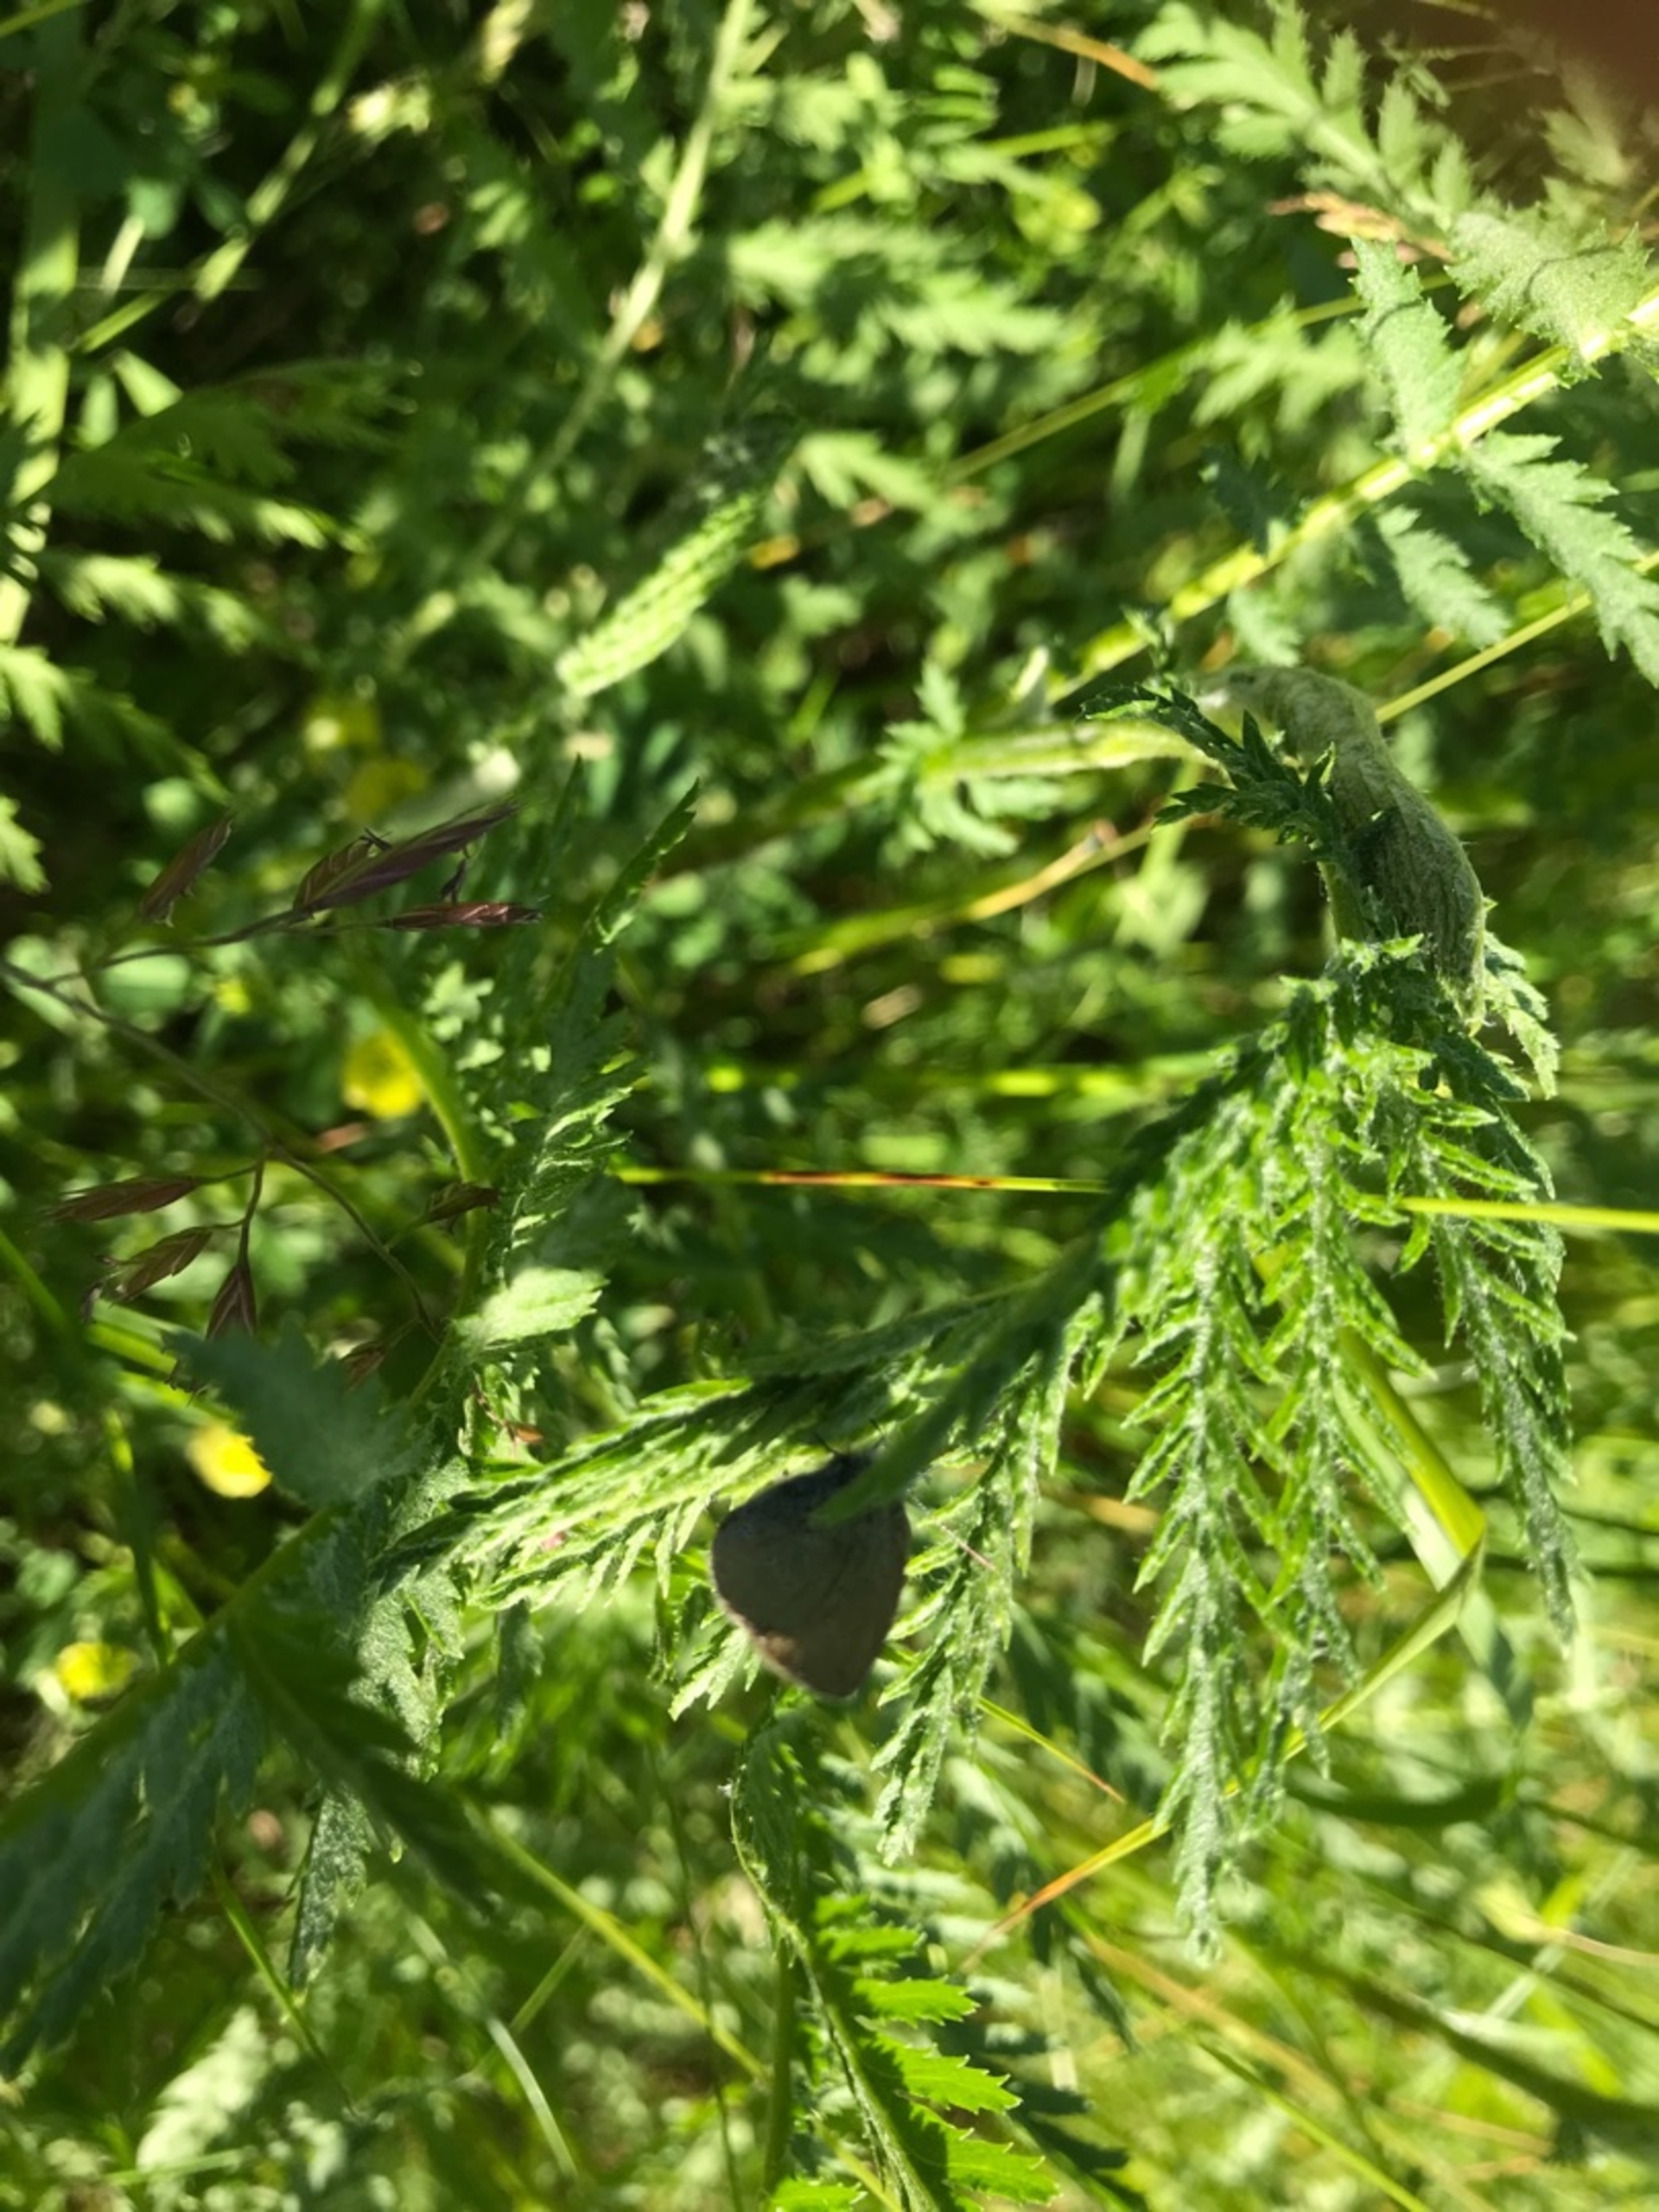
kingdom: Animalia
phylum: Arthropoda
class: Insecta
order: Lepidoptera
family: Lycaenidae
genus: Cupido
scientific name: Cupido minimus
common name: Dværgblåfugl
